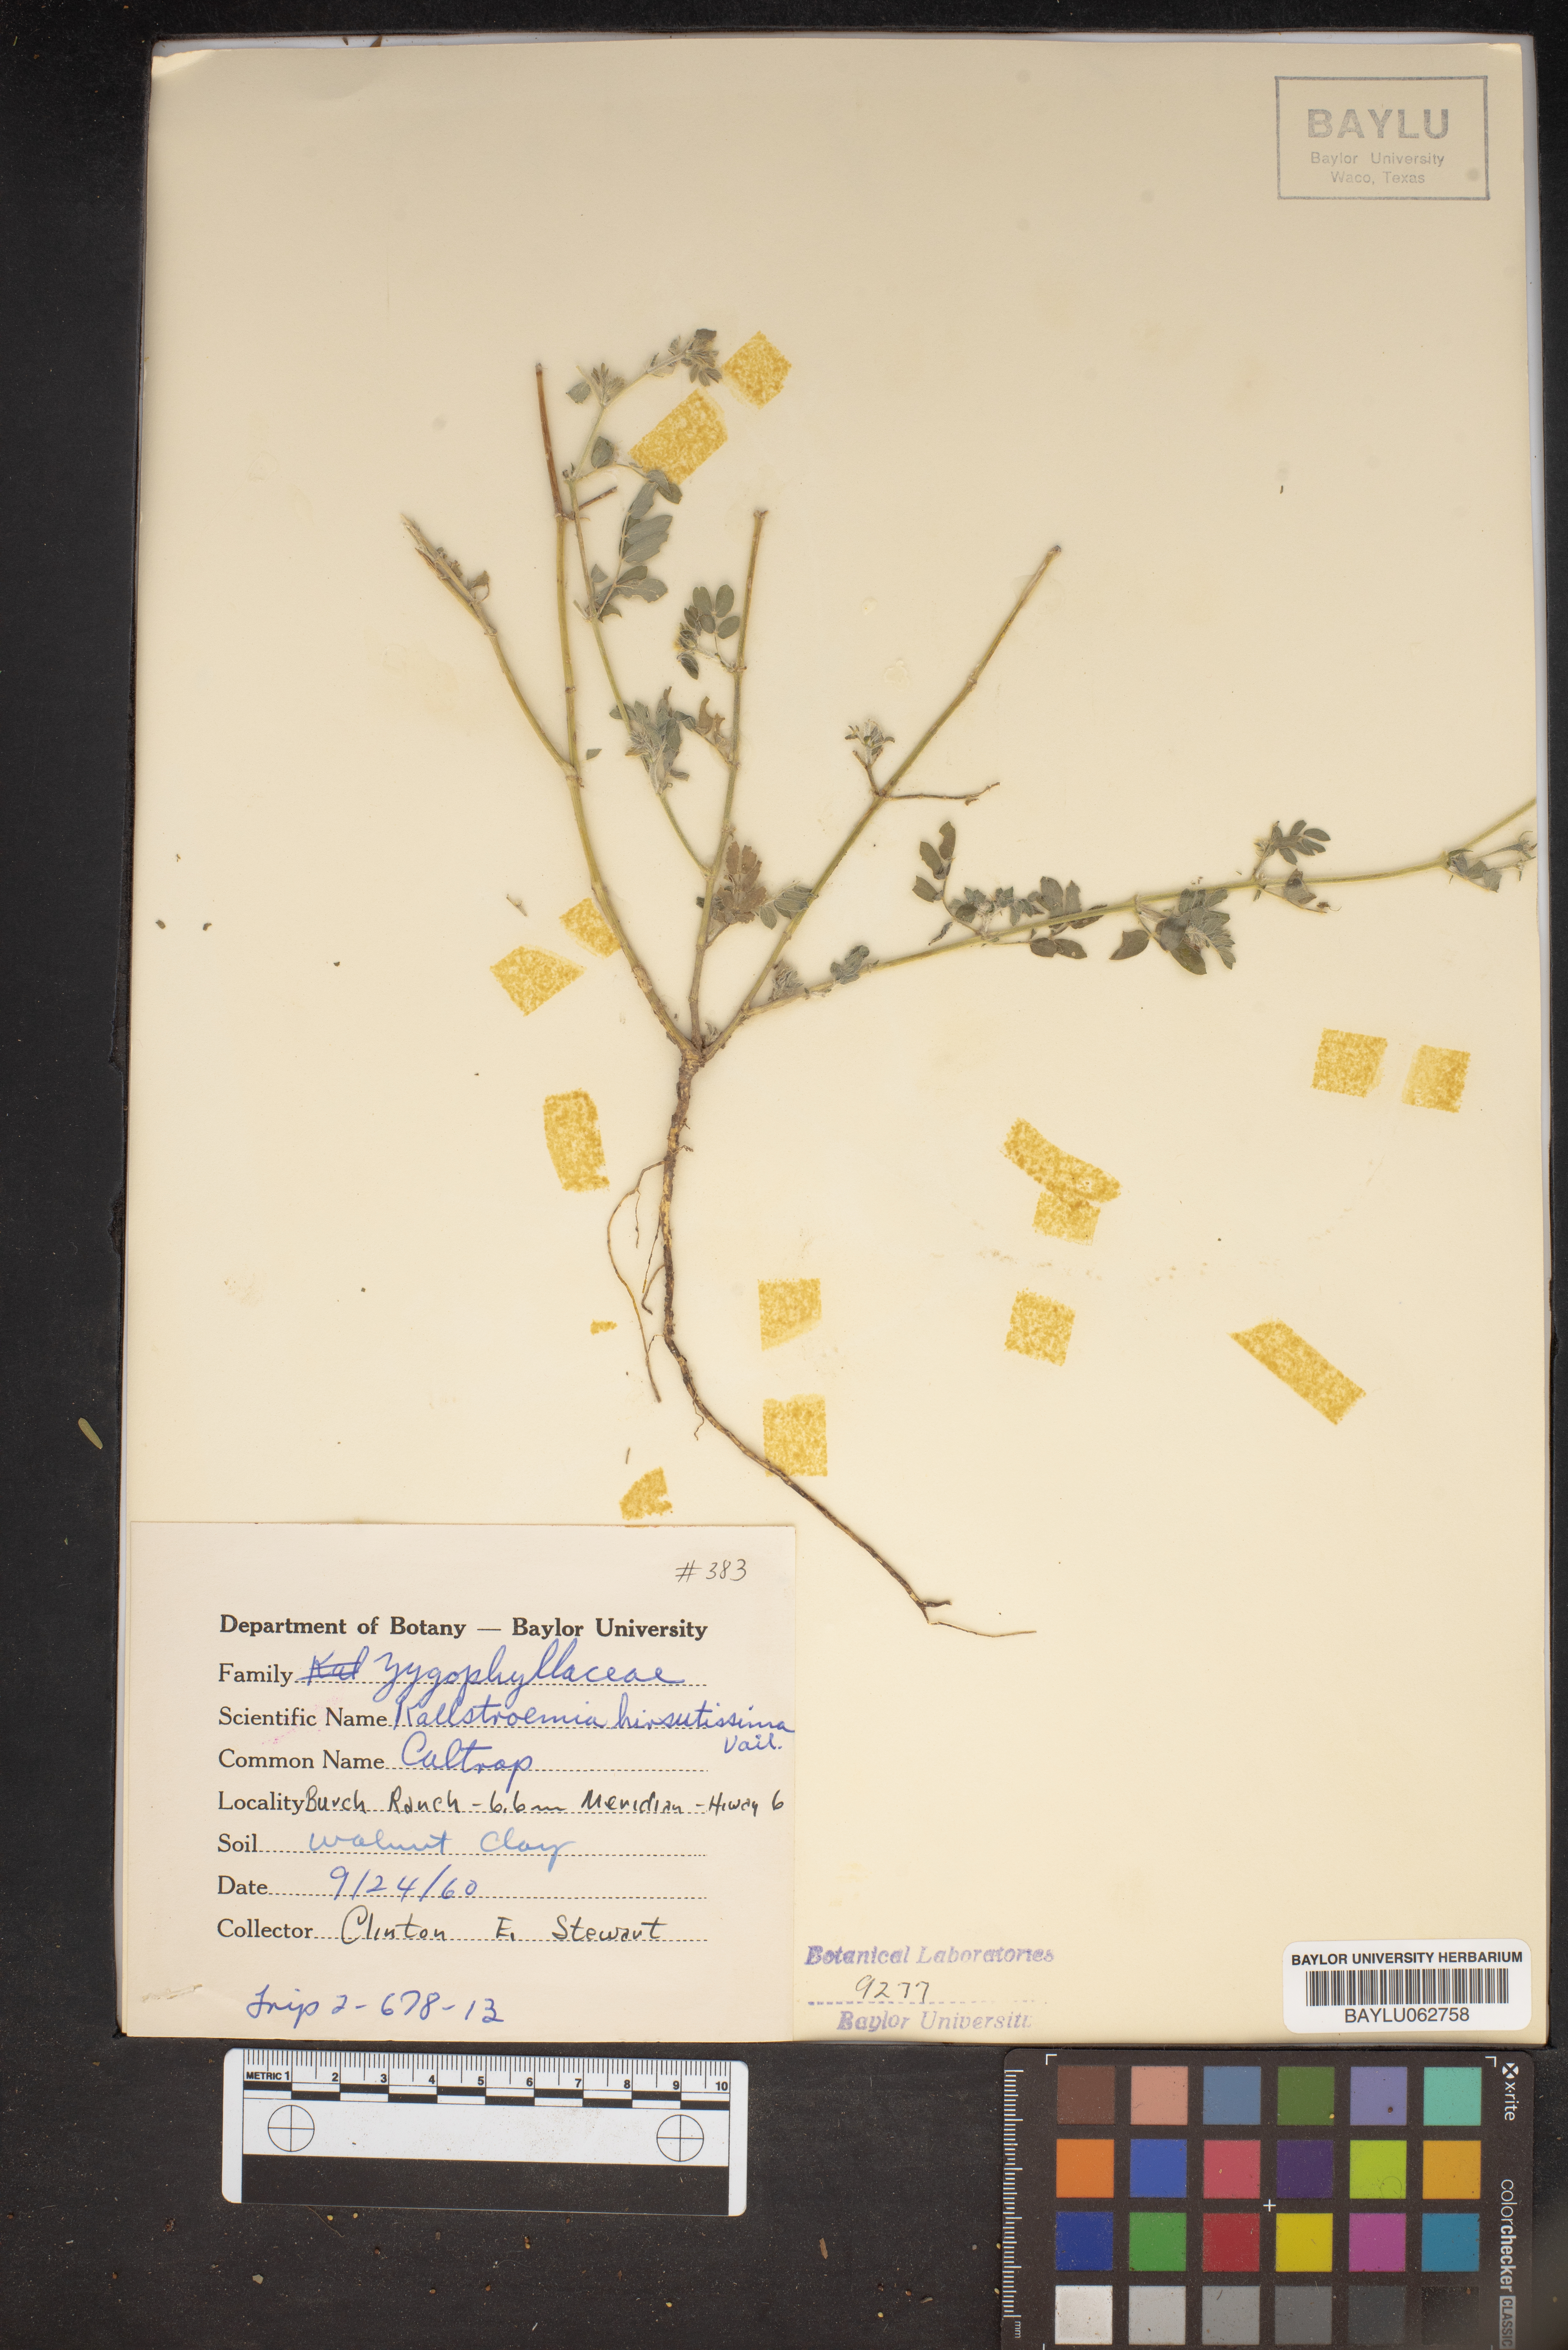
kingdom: Plantae
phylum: Tracheophyta
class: Magnoliopsida
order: Zygophyllales
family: Zygophyllaceae
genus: Kallstroemia
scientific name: Kallstroemia hirsutissima
